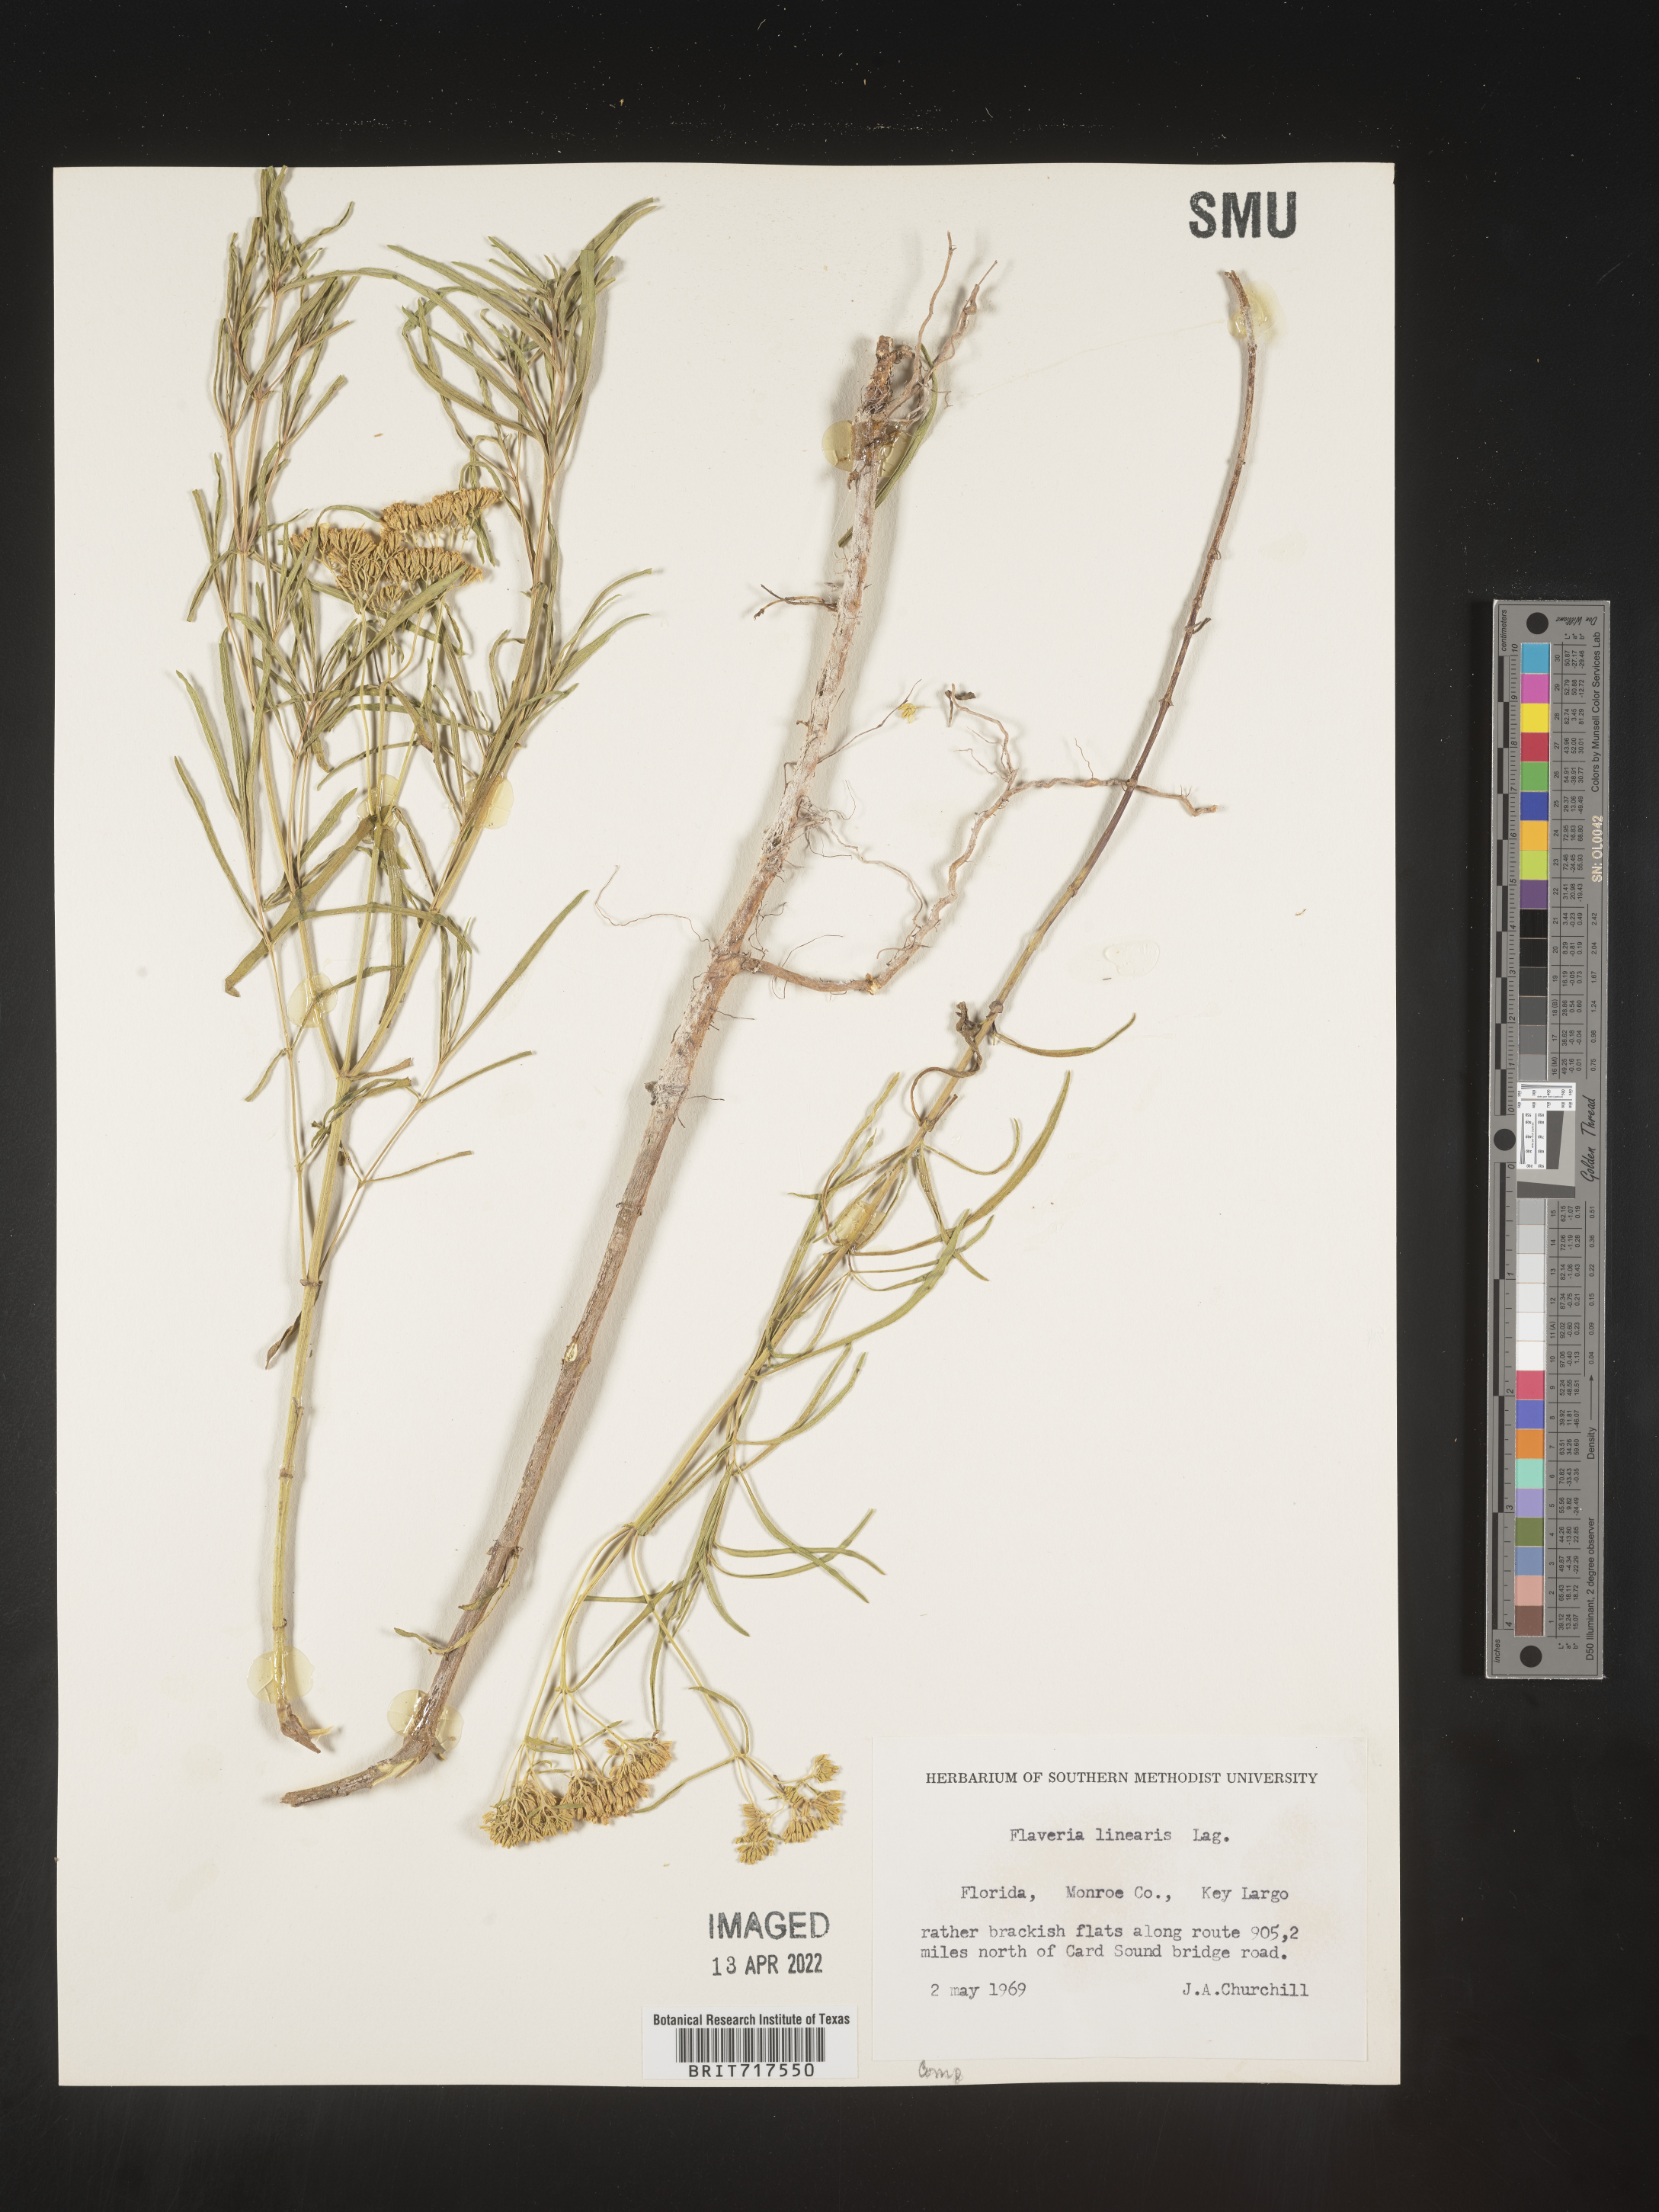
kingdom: Plantae
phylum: Tracheophyta
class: Magnoliopsida
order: Asterales
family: Asteraceae
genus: Flaveria
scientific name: Flaveria linearis
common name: Yellowtop
